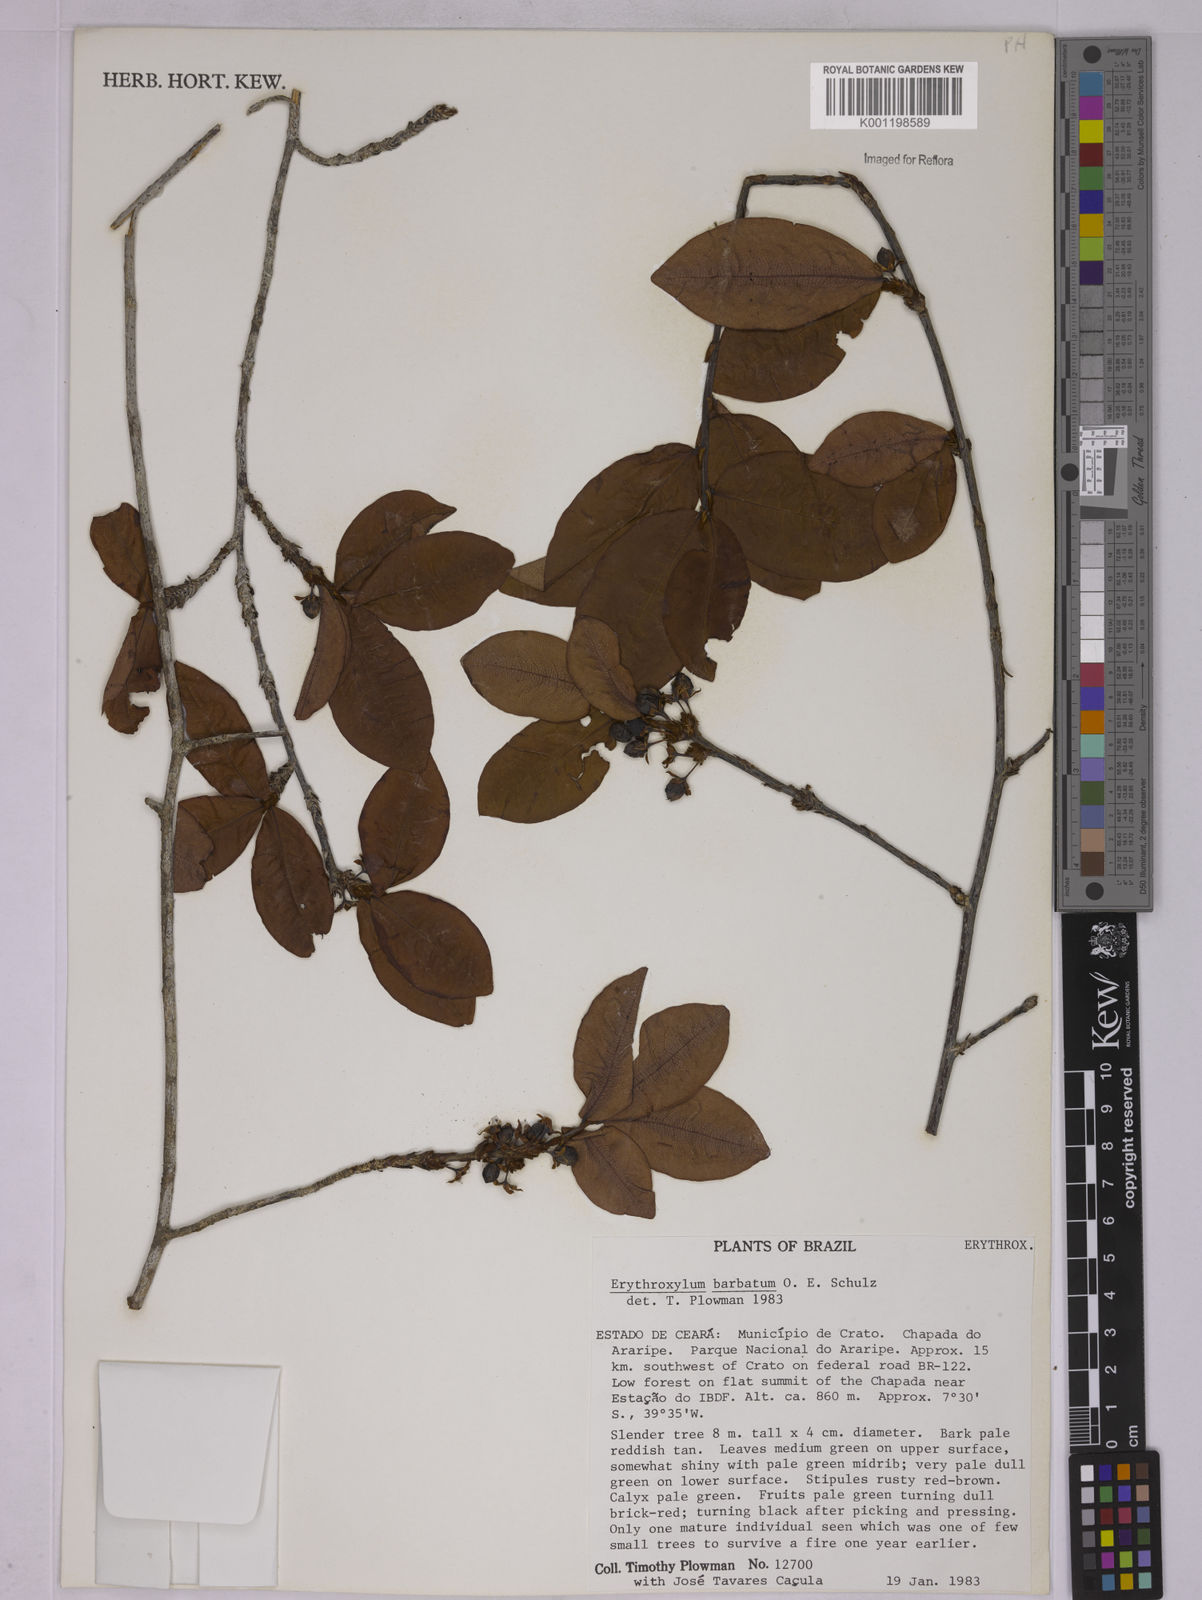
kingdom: Plantae
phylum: Tracheophyta
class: Magnoliopsida
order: Malpighiales
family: Erythroxylaceae
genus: Erythroxylum
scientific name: Erythroxylum barbatum
